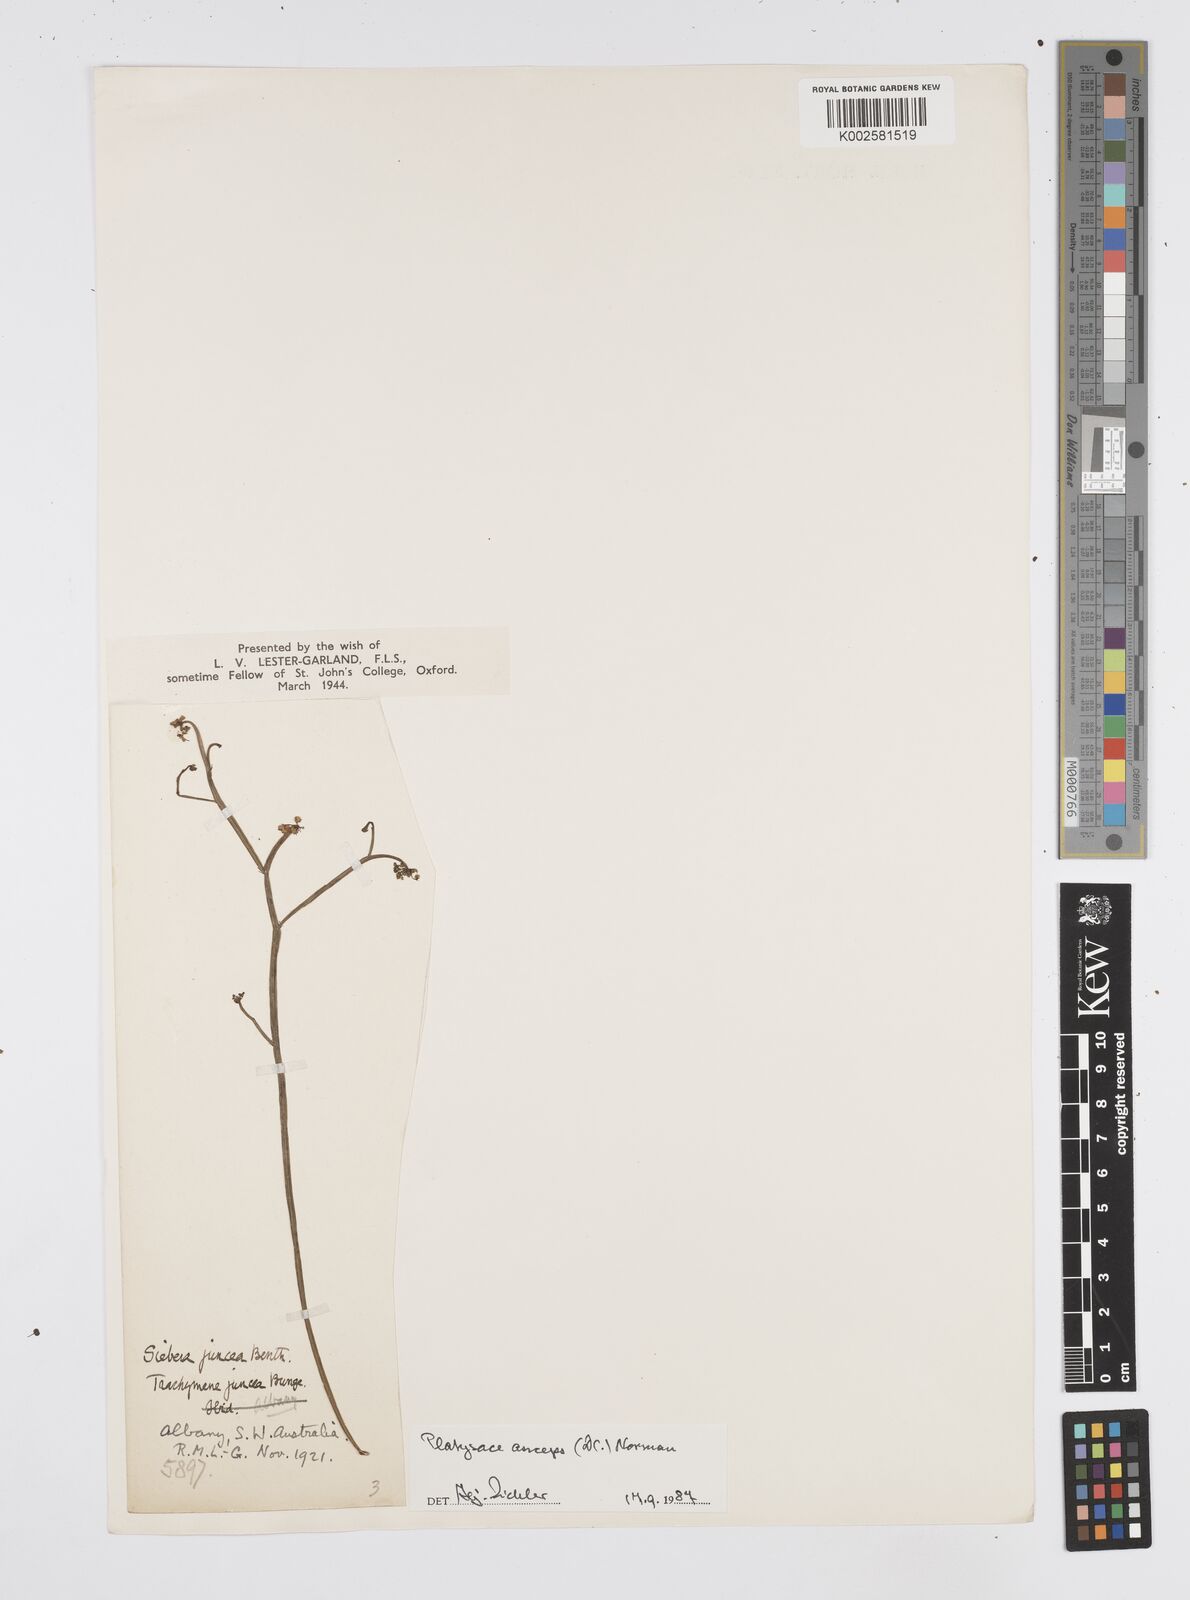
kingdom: Plantae
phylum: Tracheophyta
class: Magnoliopsida
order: Apiales
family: Apiaceae
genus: Centella
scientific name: Centella
